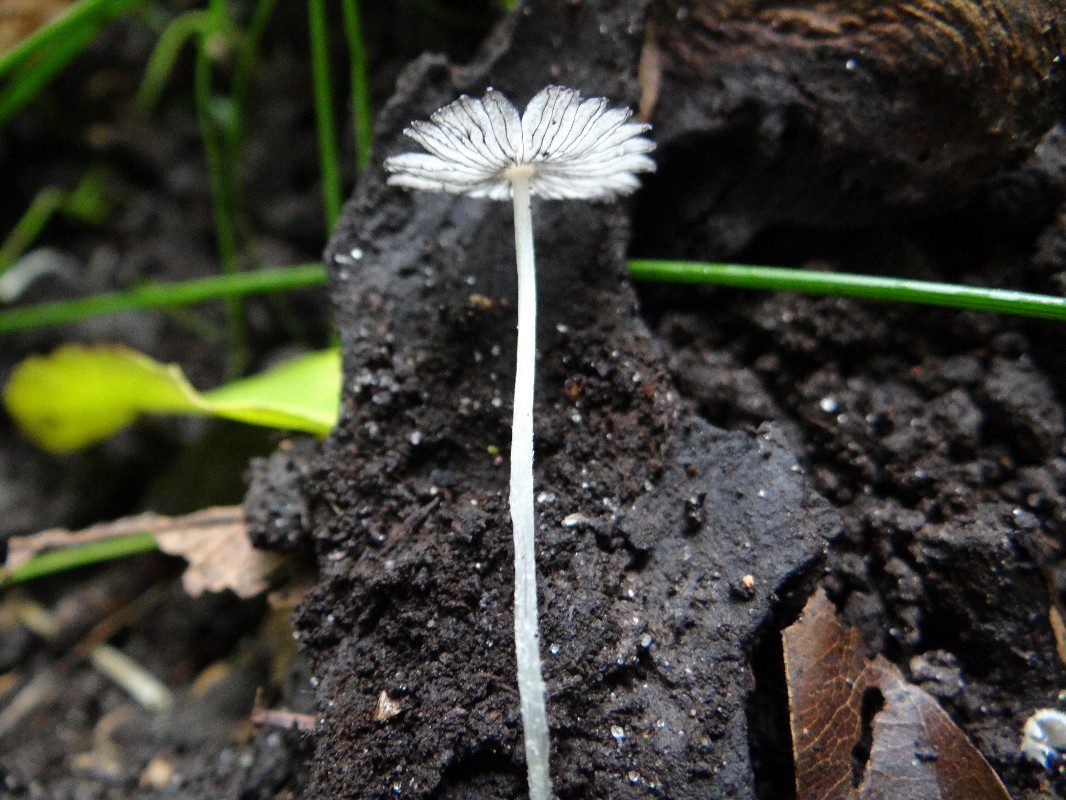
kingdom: Fungi
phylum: Basidiomycota
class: Agaricomycetes
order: Agaricales
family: Psathyrellaceae
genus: Coprinopsis
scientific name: Coprinopsis lagopus
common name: dunstokket blækhat
